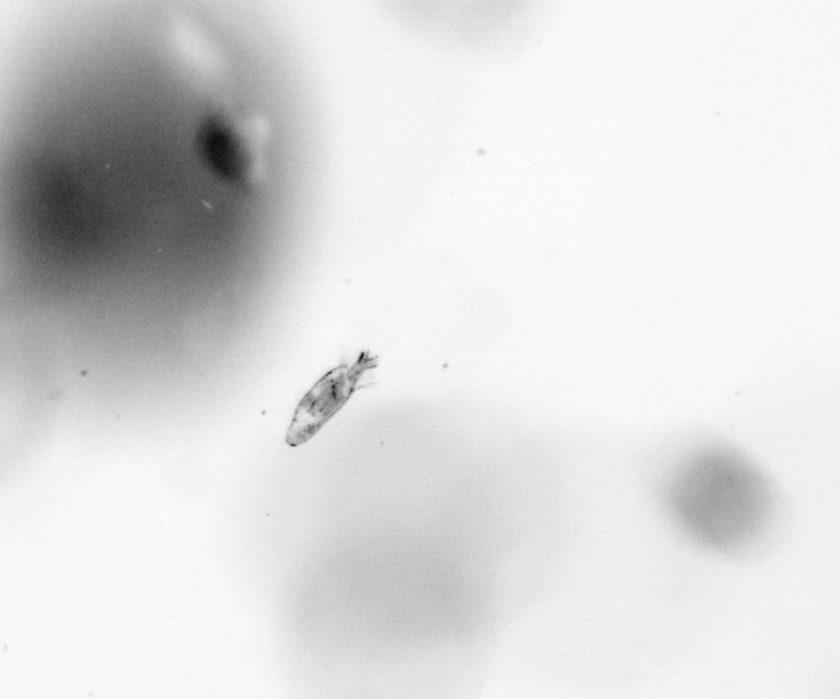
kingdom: Animalia
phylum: Arthropoda
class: Copepoda
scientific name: Copepoda
